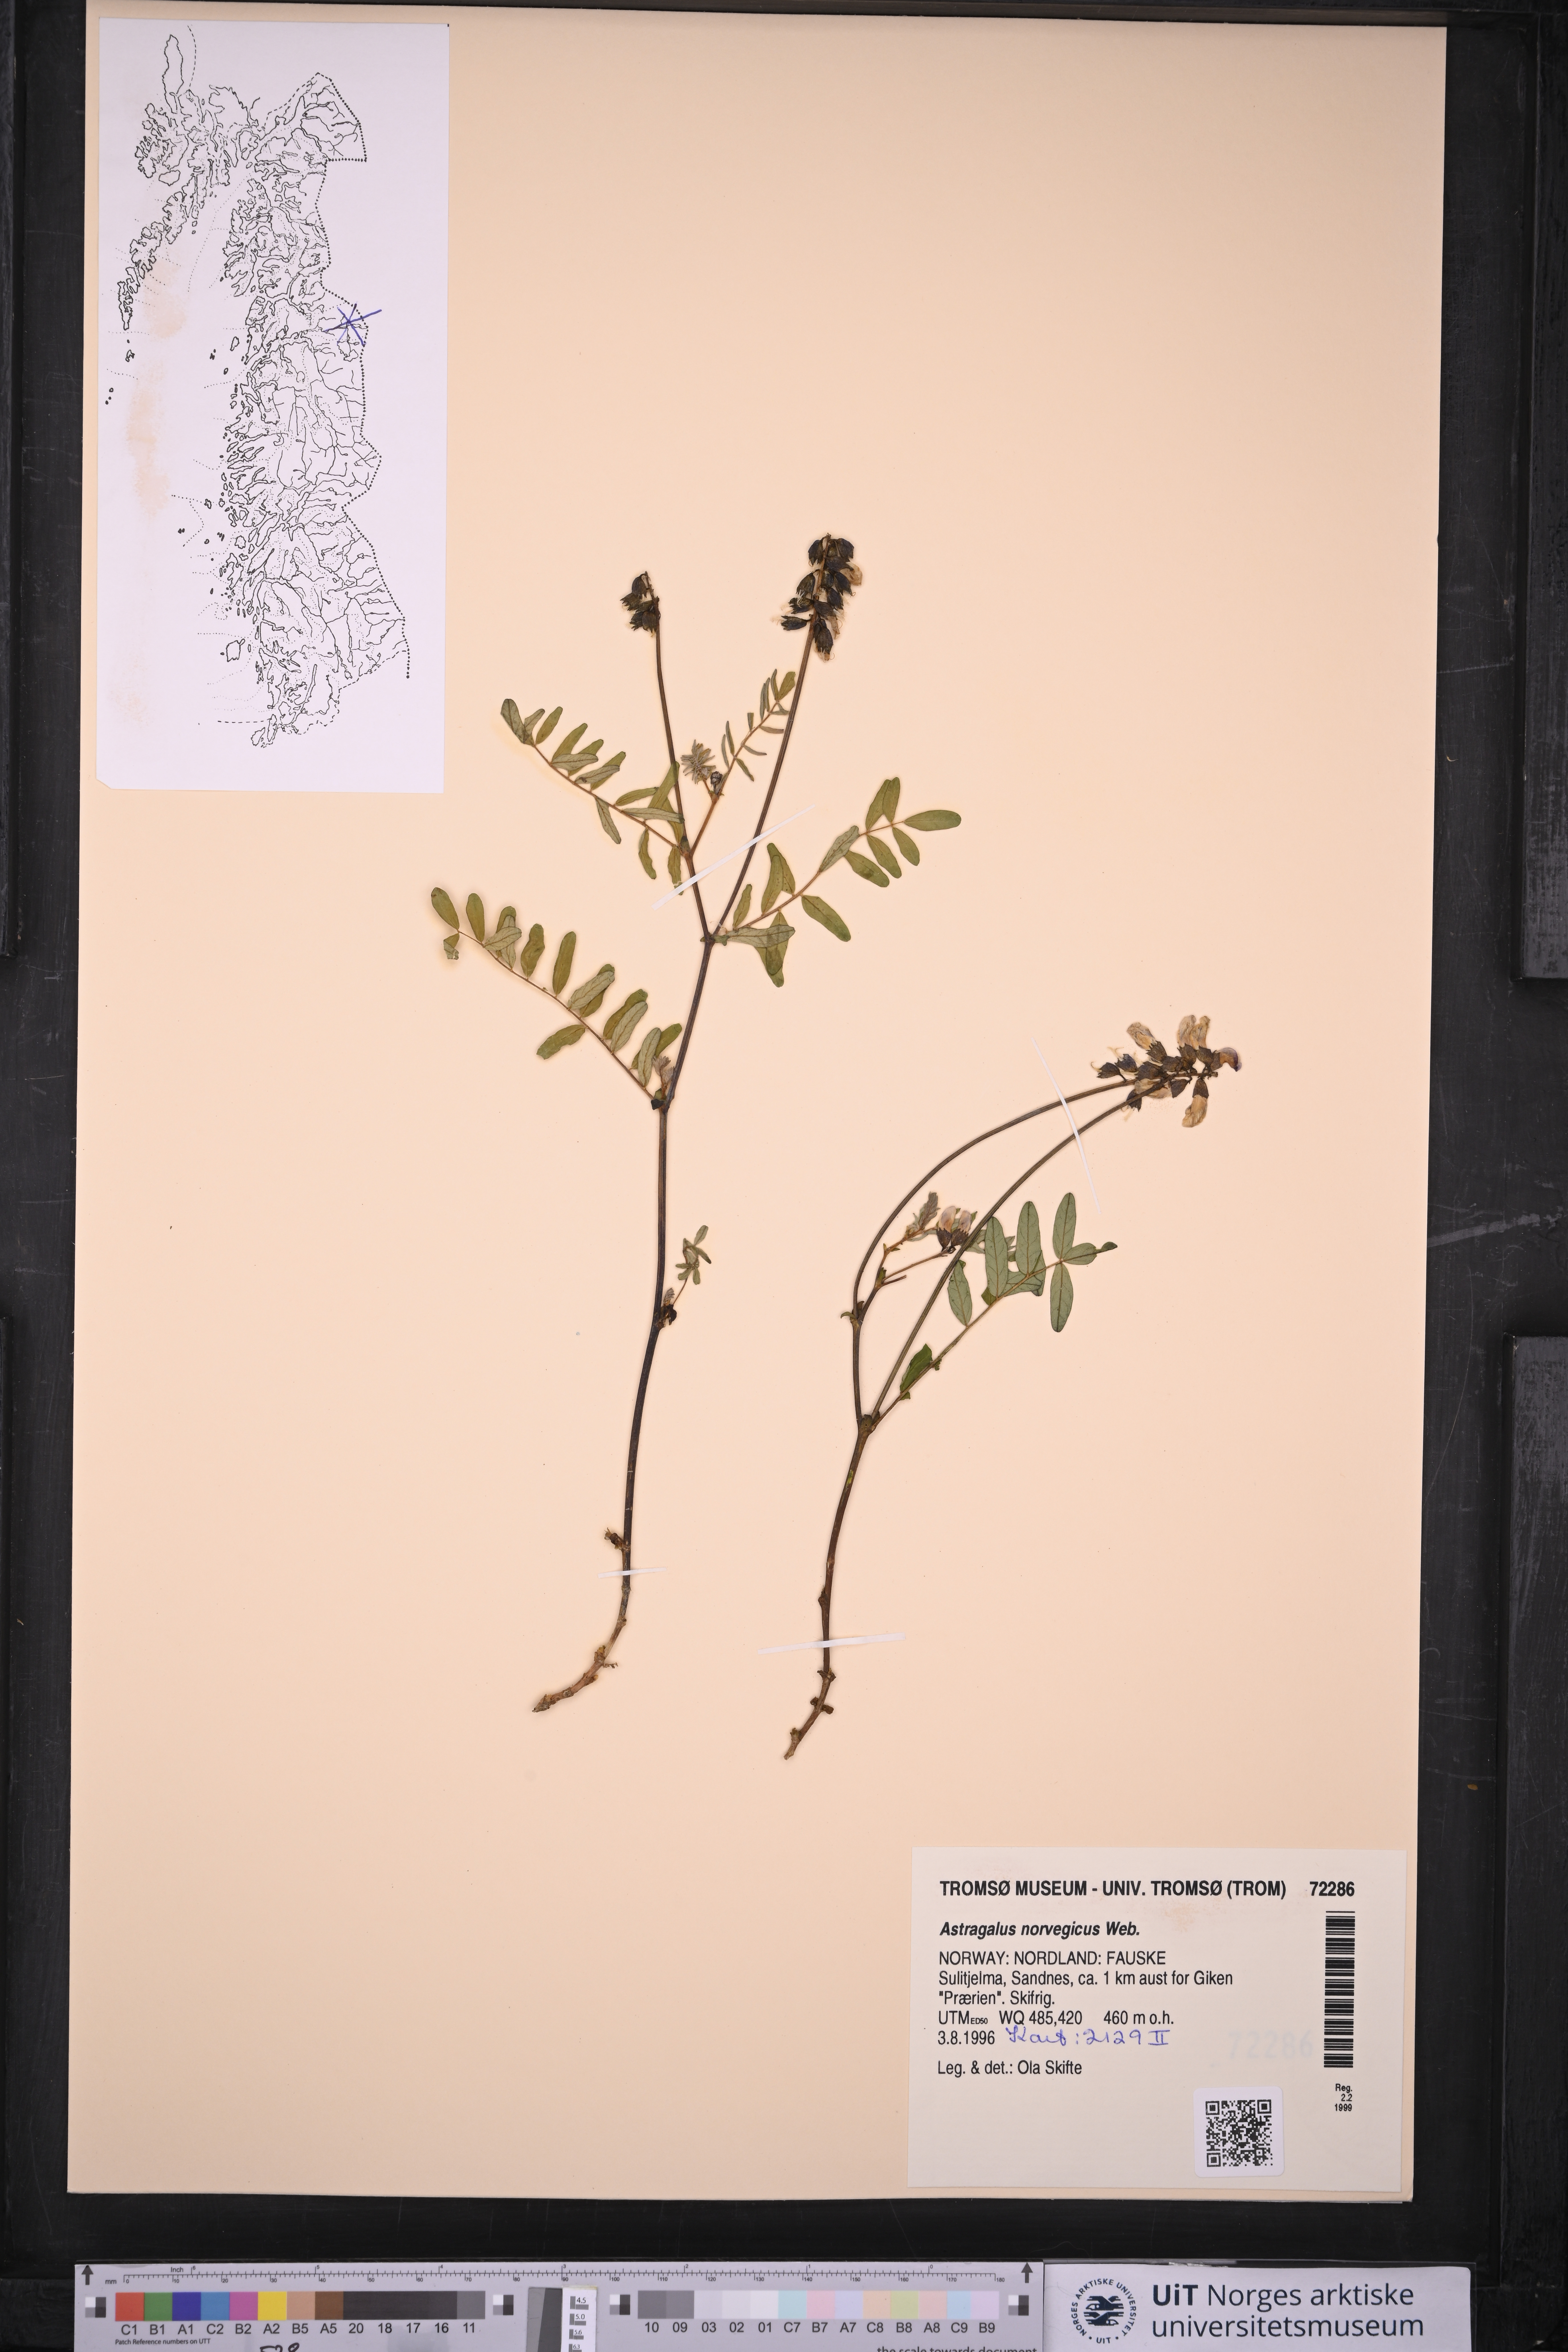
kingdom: Plantae
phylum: Tracheophyta
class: Magnoliopsida
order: Fabales
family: Fabaceae
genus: Astragalus
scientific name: Astragalus norvegicus
